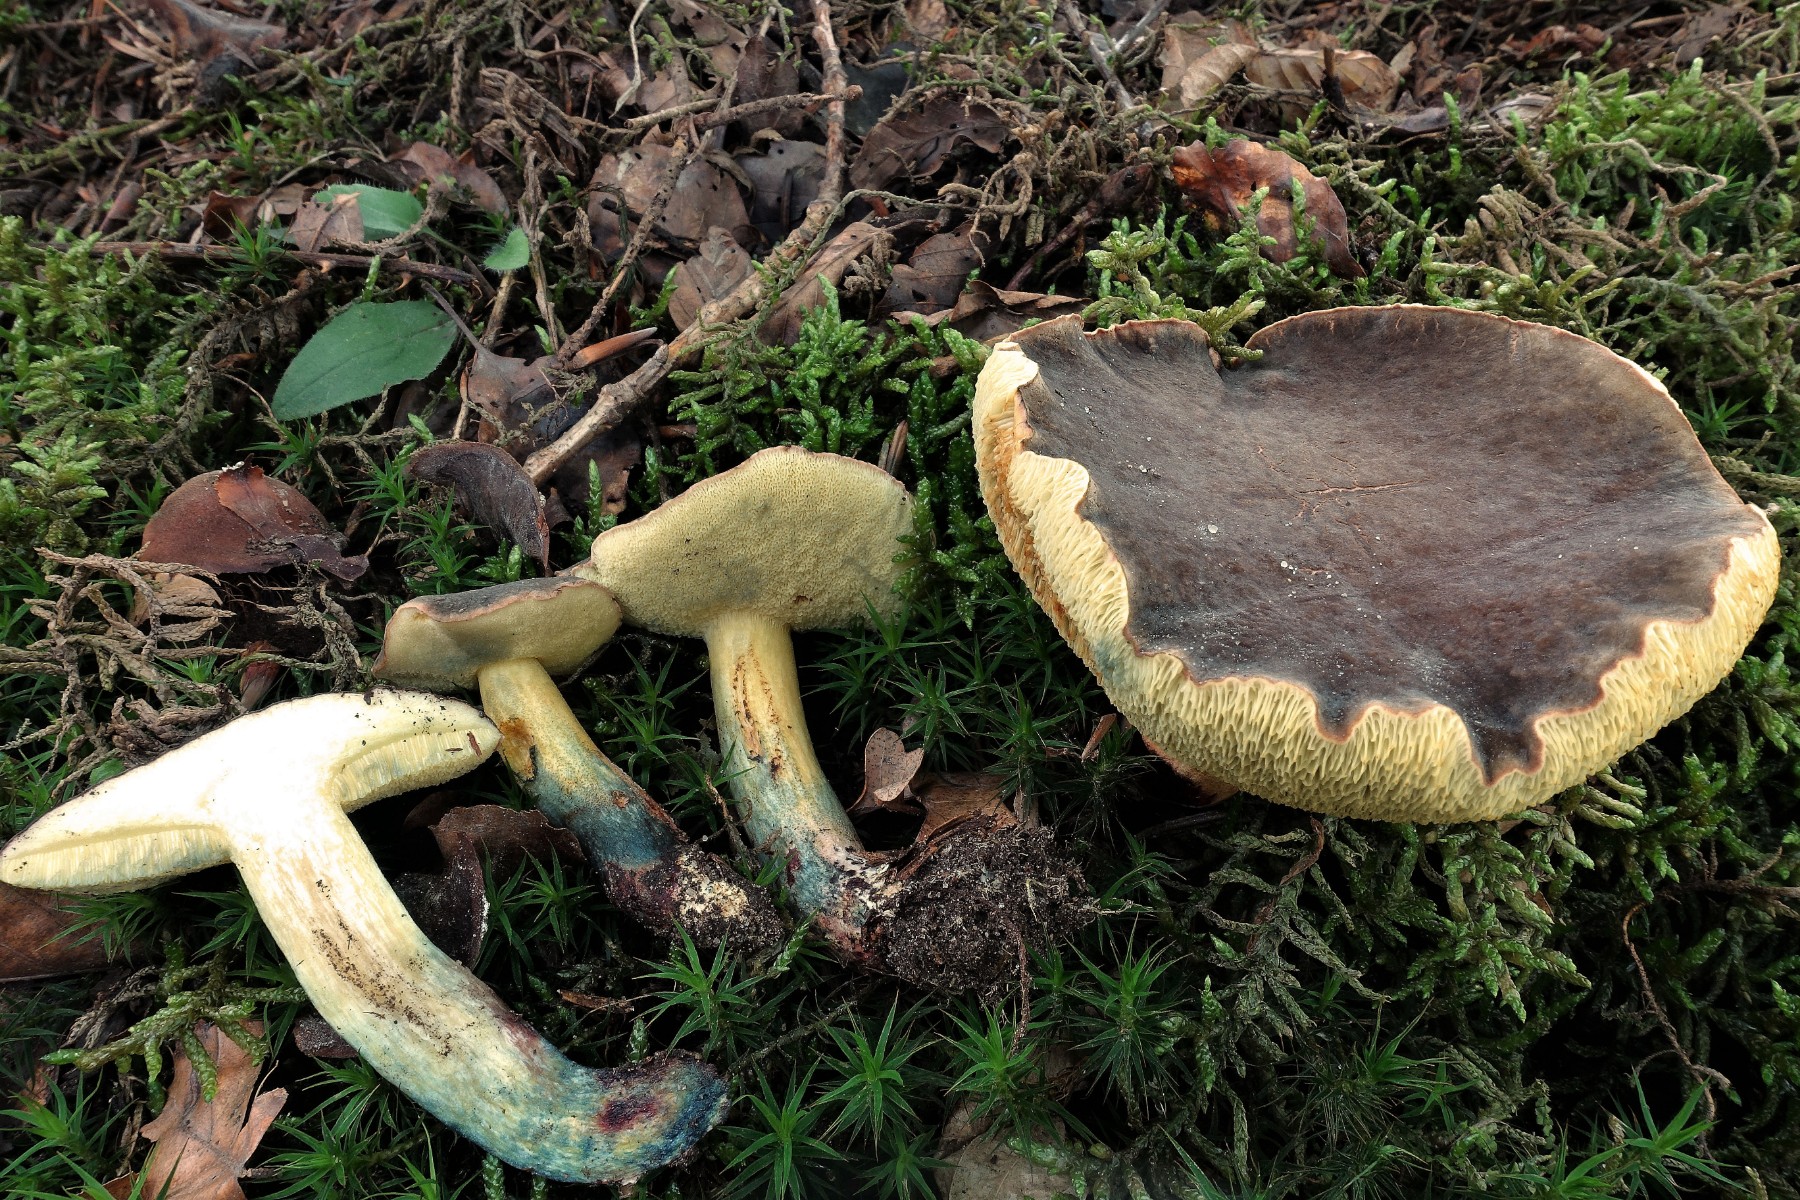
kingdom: Fungi
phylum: Basidiomycota
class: Agaricomycetes
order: Boletales
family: Boletaceae
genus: Xerocomellus
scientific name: Xerocomellus cisalpinus
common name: finsprukken rørhat
